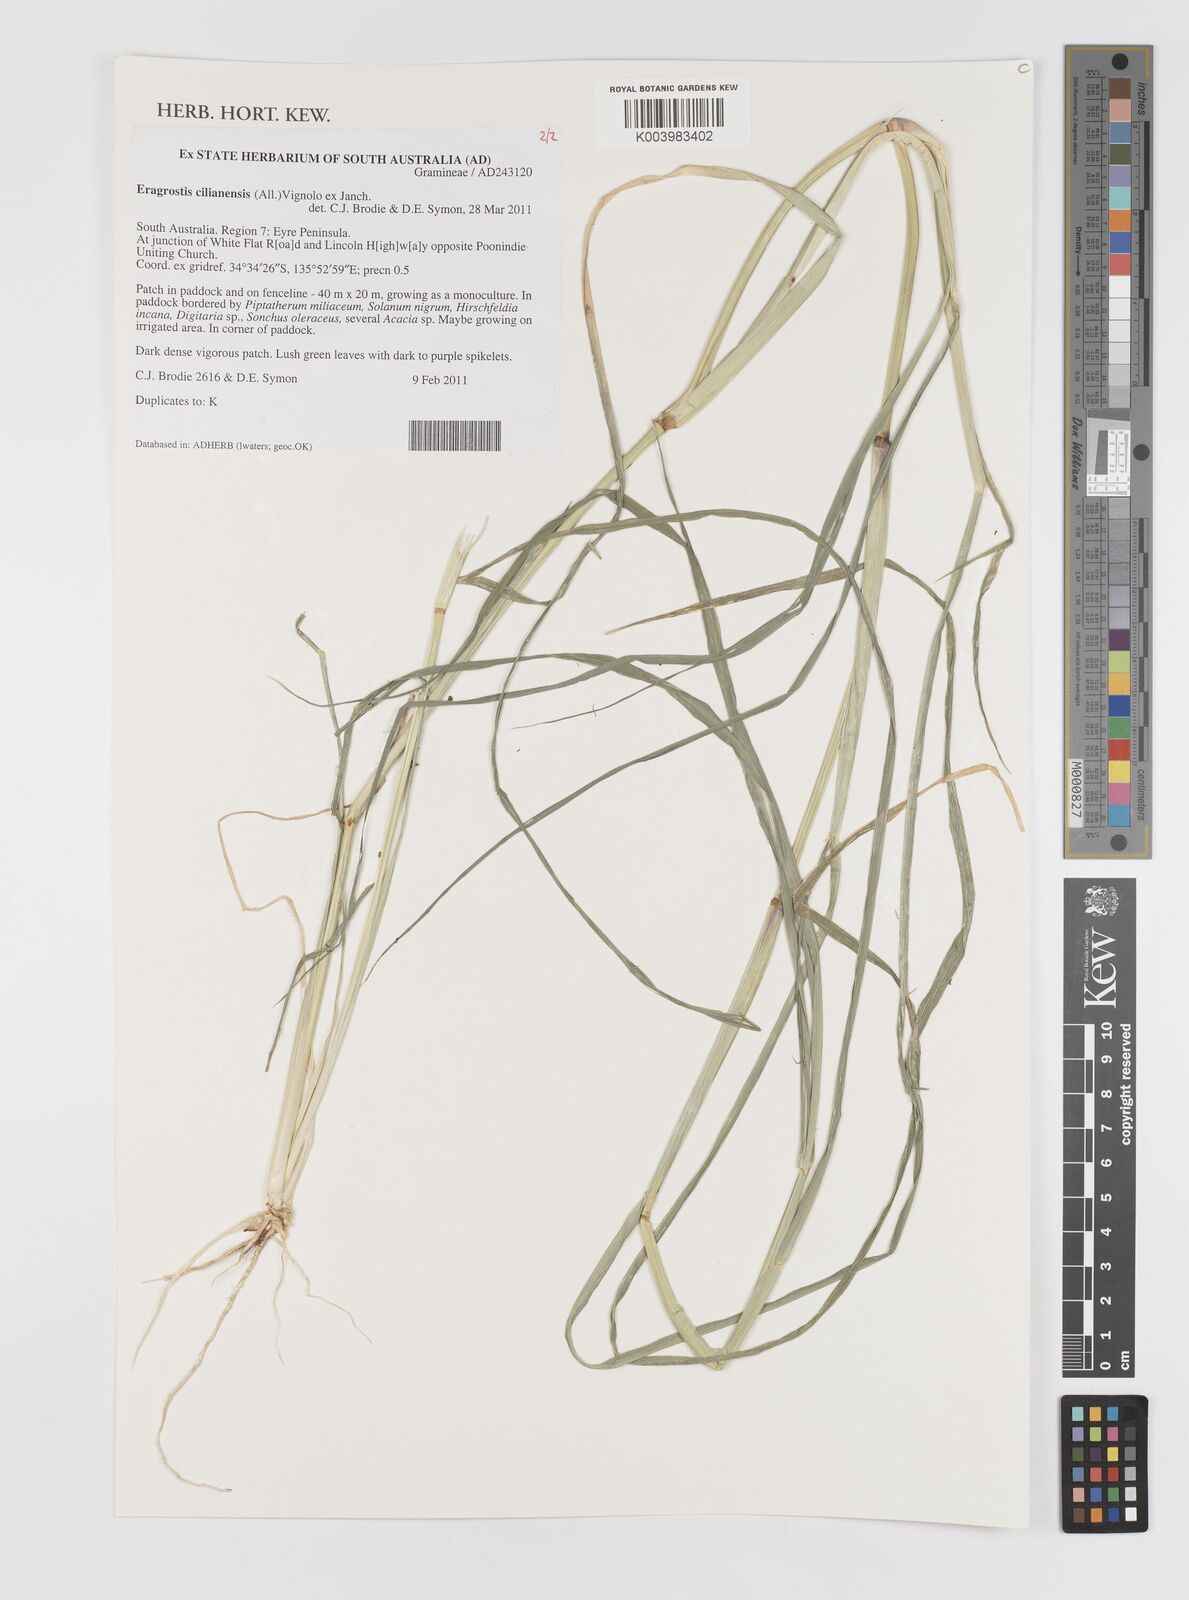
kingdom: Plantae
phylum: Tracheophyta
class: Liliopsida
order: Poales
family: Poaceae
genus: Eragrostis
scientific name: Eragrostis cilianensis
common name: Stinkgrass
